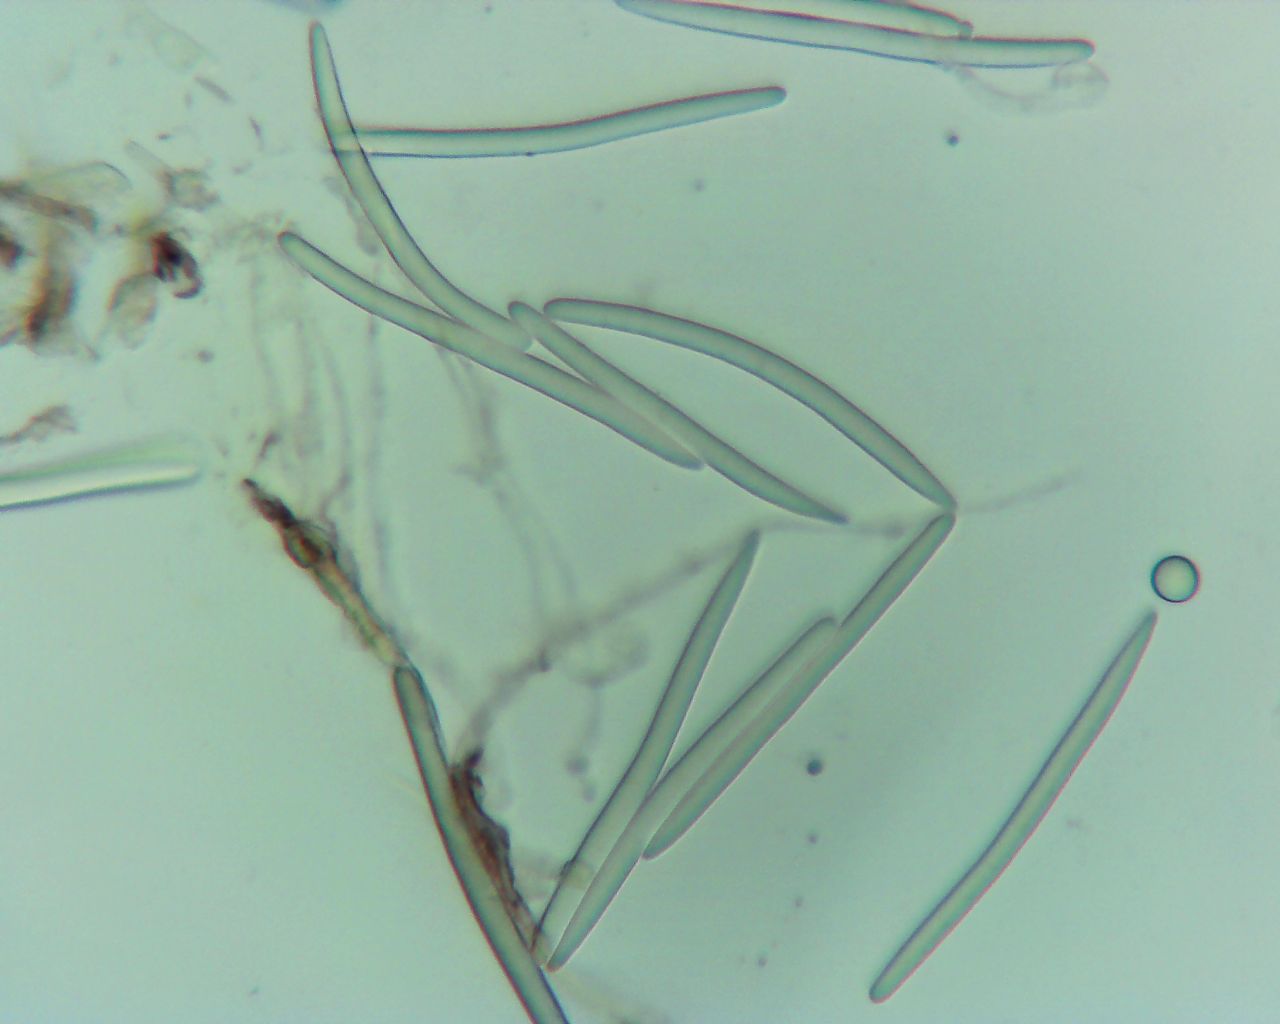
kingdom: Fungi
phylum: Ascomycota
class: Geoglossomycetes
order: Geoglossales
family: Geoglossaceae
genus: Geoglossum
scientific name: Geoglossum fallax
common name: småskællet jordtunge
